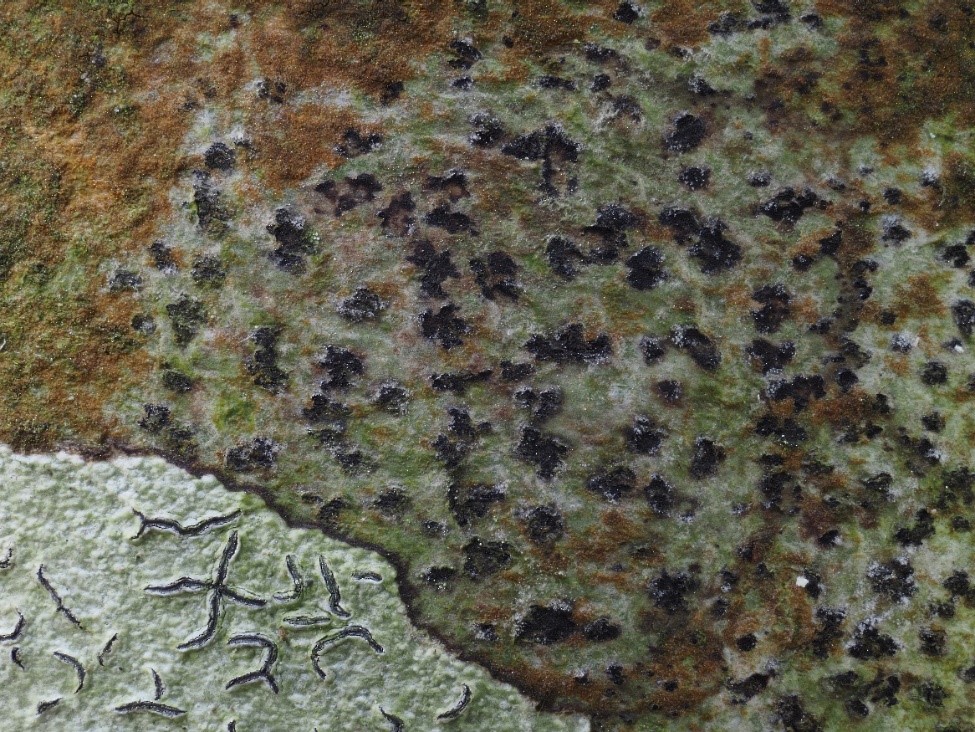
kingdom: Fungi
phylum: Ascomycota
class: Arthoniomycetes
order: Arthoniales
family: Arthoniaceae
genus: Arthothelium
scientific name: Arthothelium ruanum
